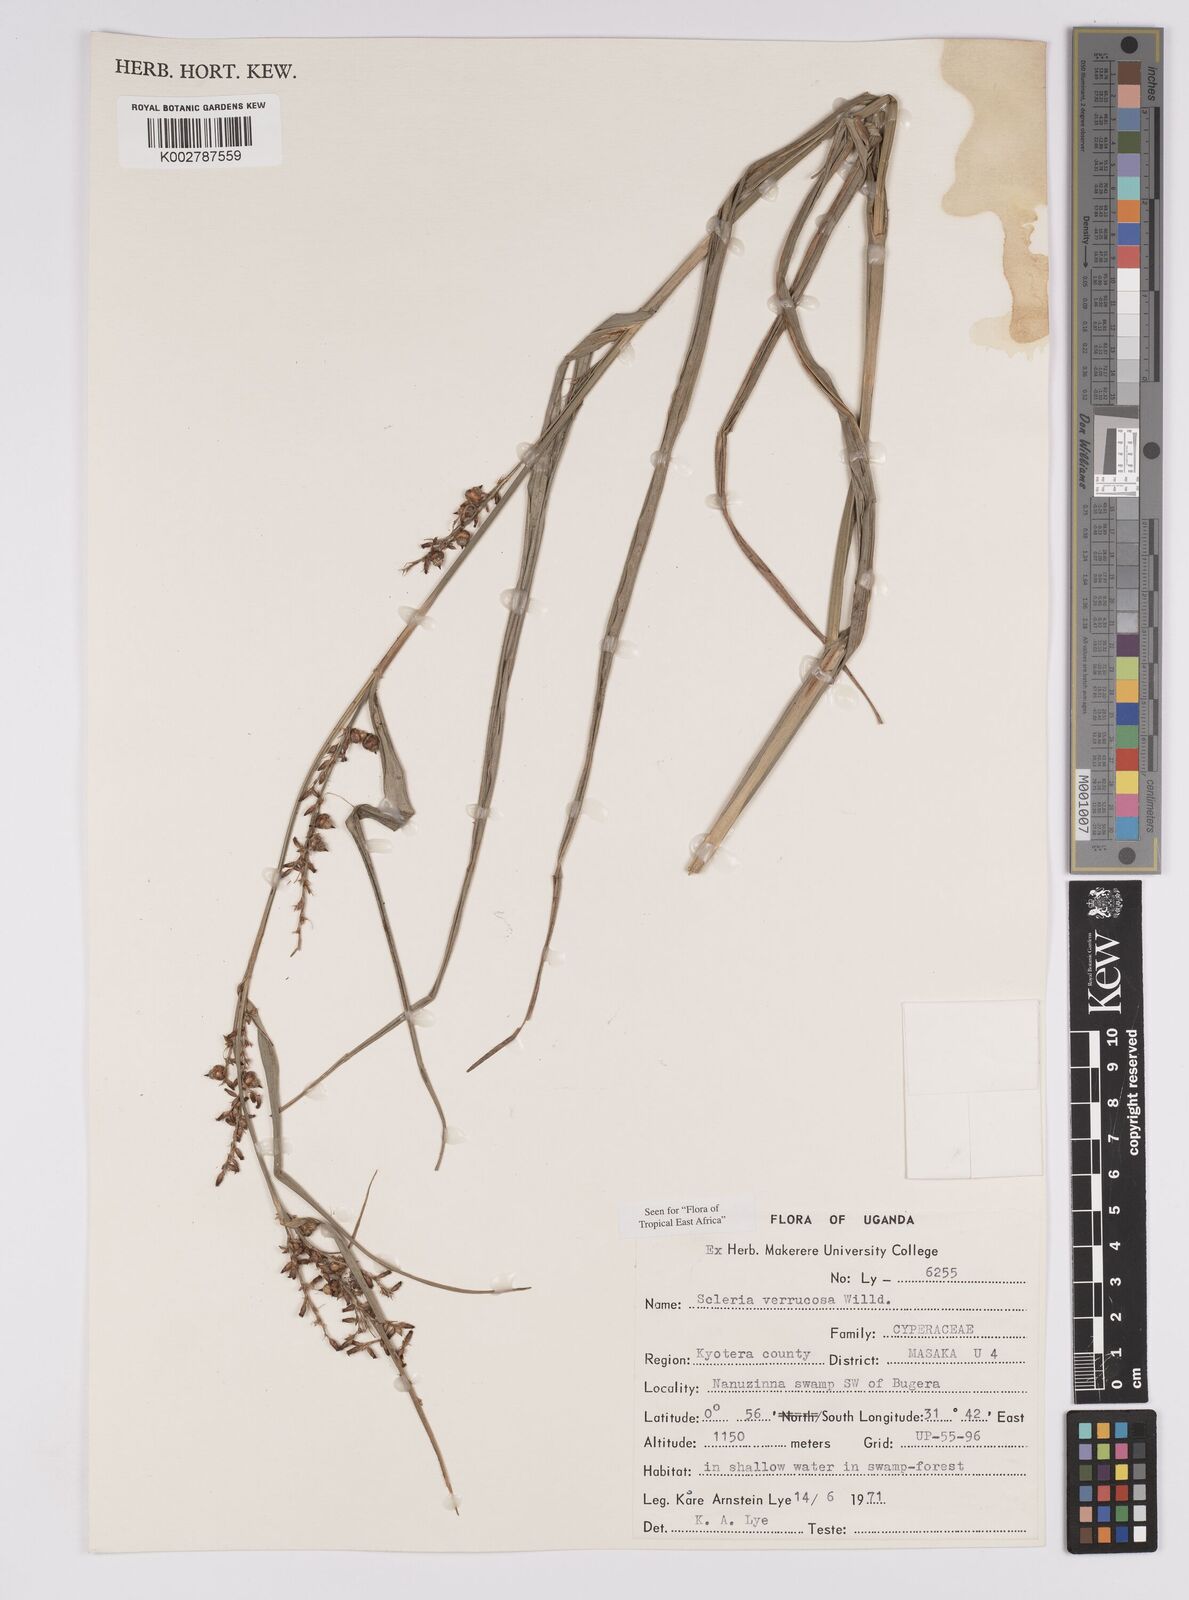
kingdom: Plantae
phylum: Tracheophyta
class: Liliopsida
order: Poales
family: Cyperaceae
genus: Scleria
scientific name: Scleria verrucosa
